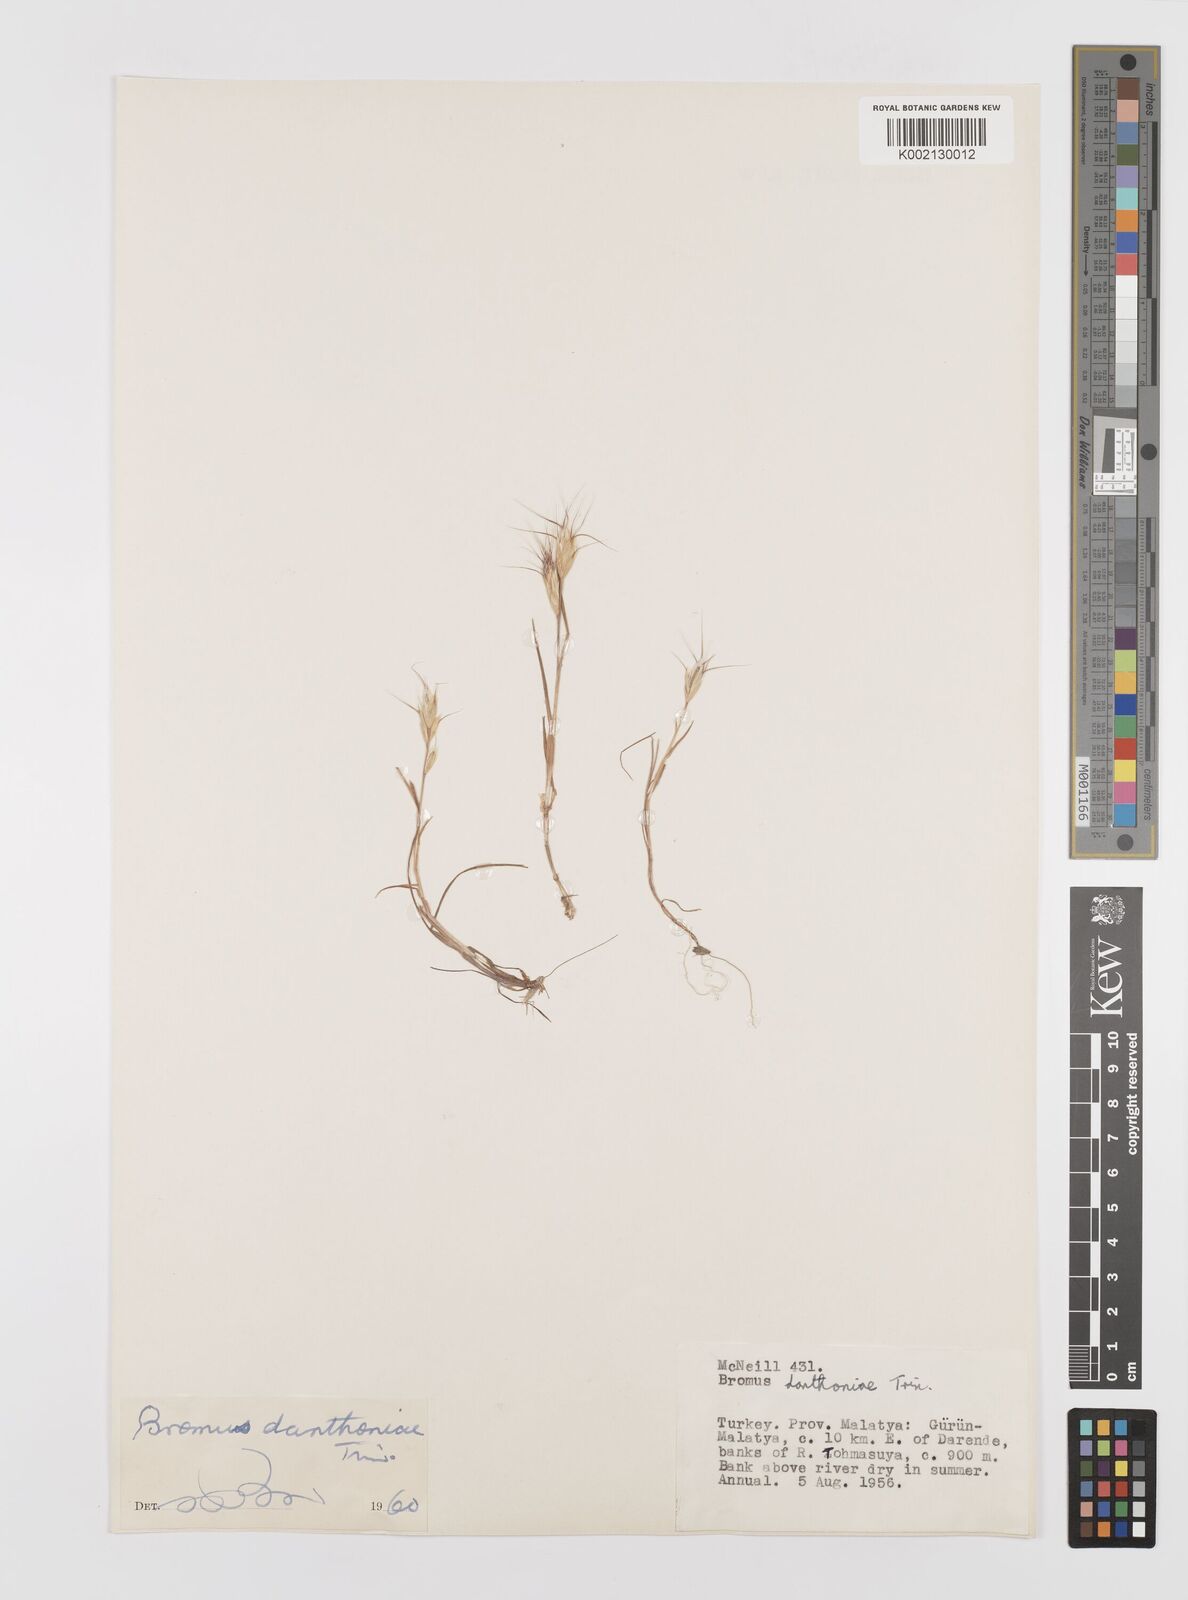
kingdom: Plantae
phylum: Tracheophyta
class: Liliopsida
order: Poales
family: Poaceae
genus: Bromus
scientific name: Bromus danthoniae
